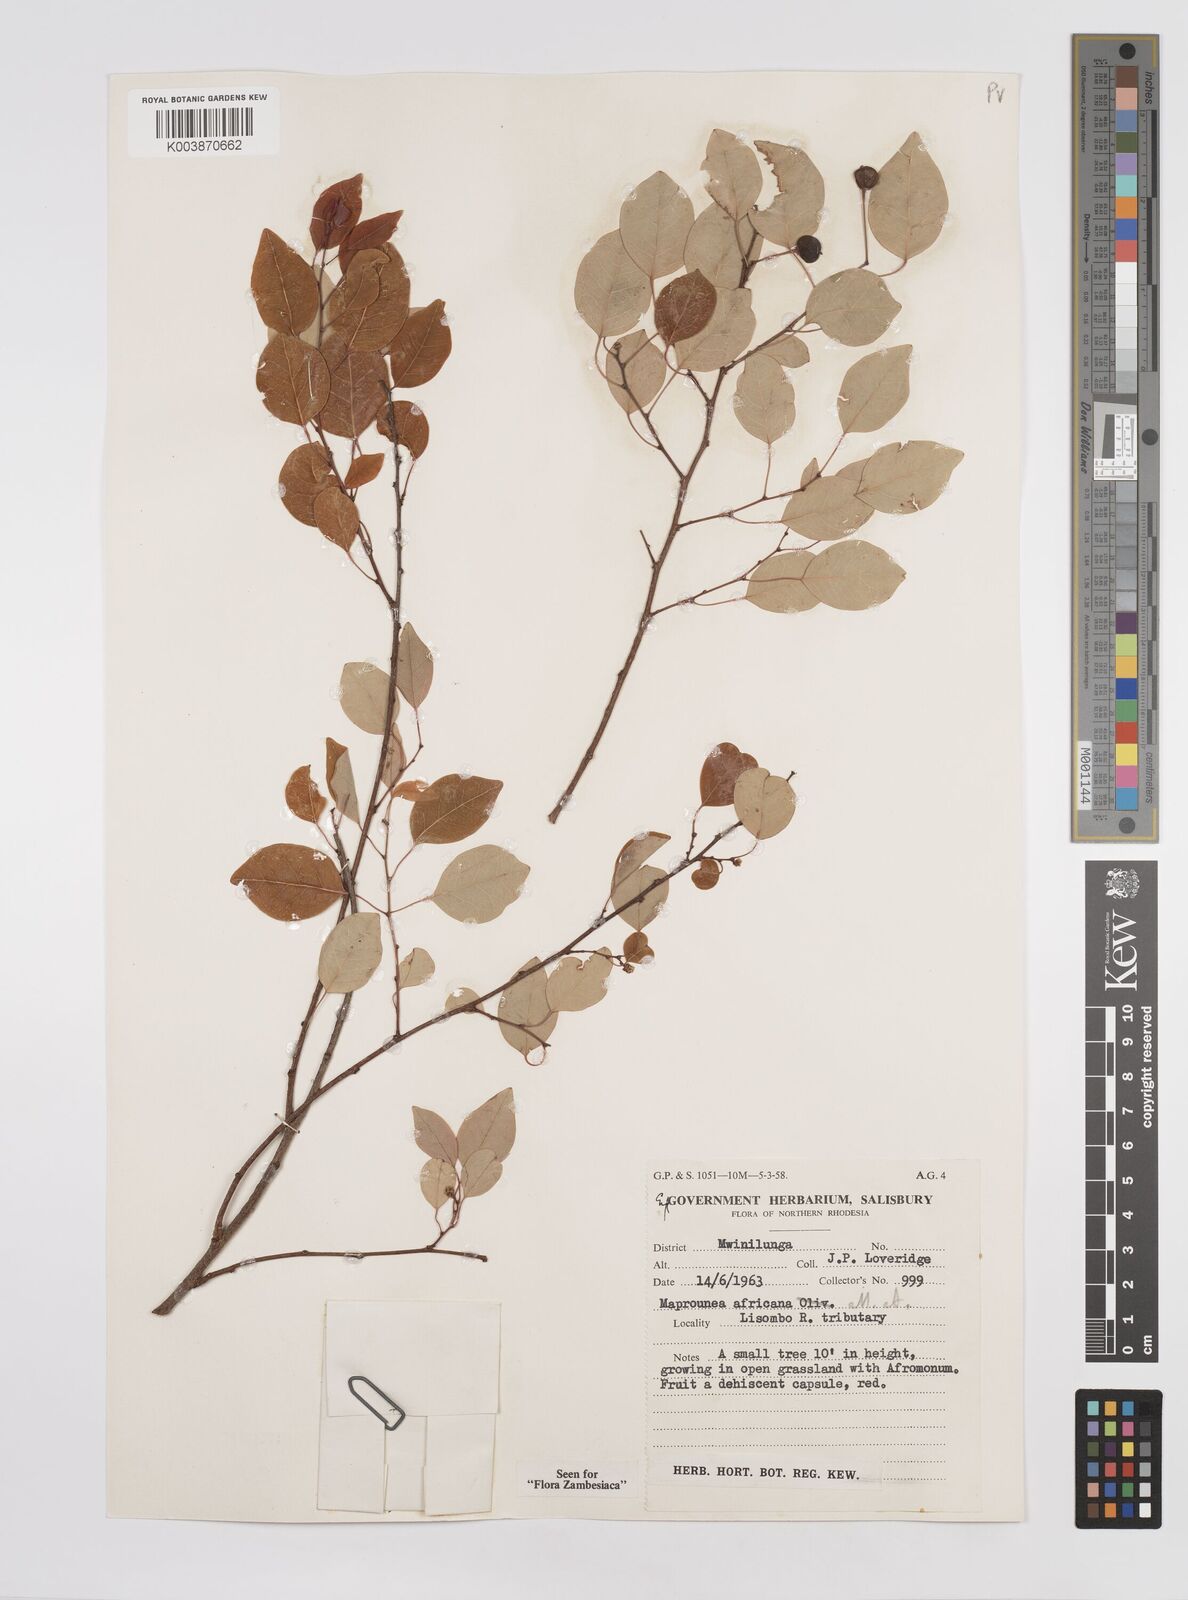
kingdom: Plantae
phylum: Tracheophyta
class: Magnoliopsida
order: Malpighiales
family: Euphorbiaceae
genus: Maprounea
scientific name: Maprounea africana
